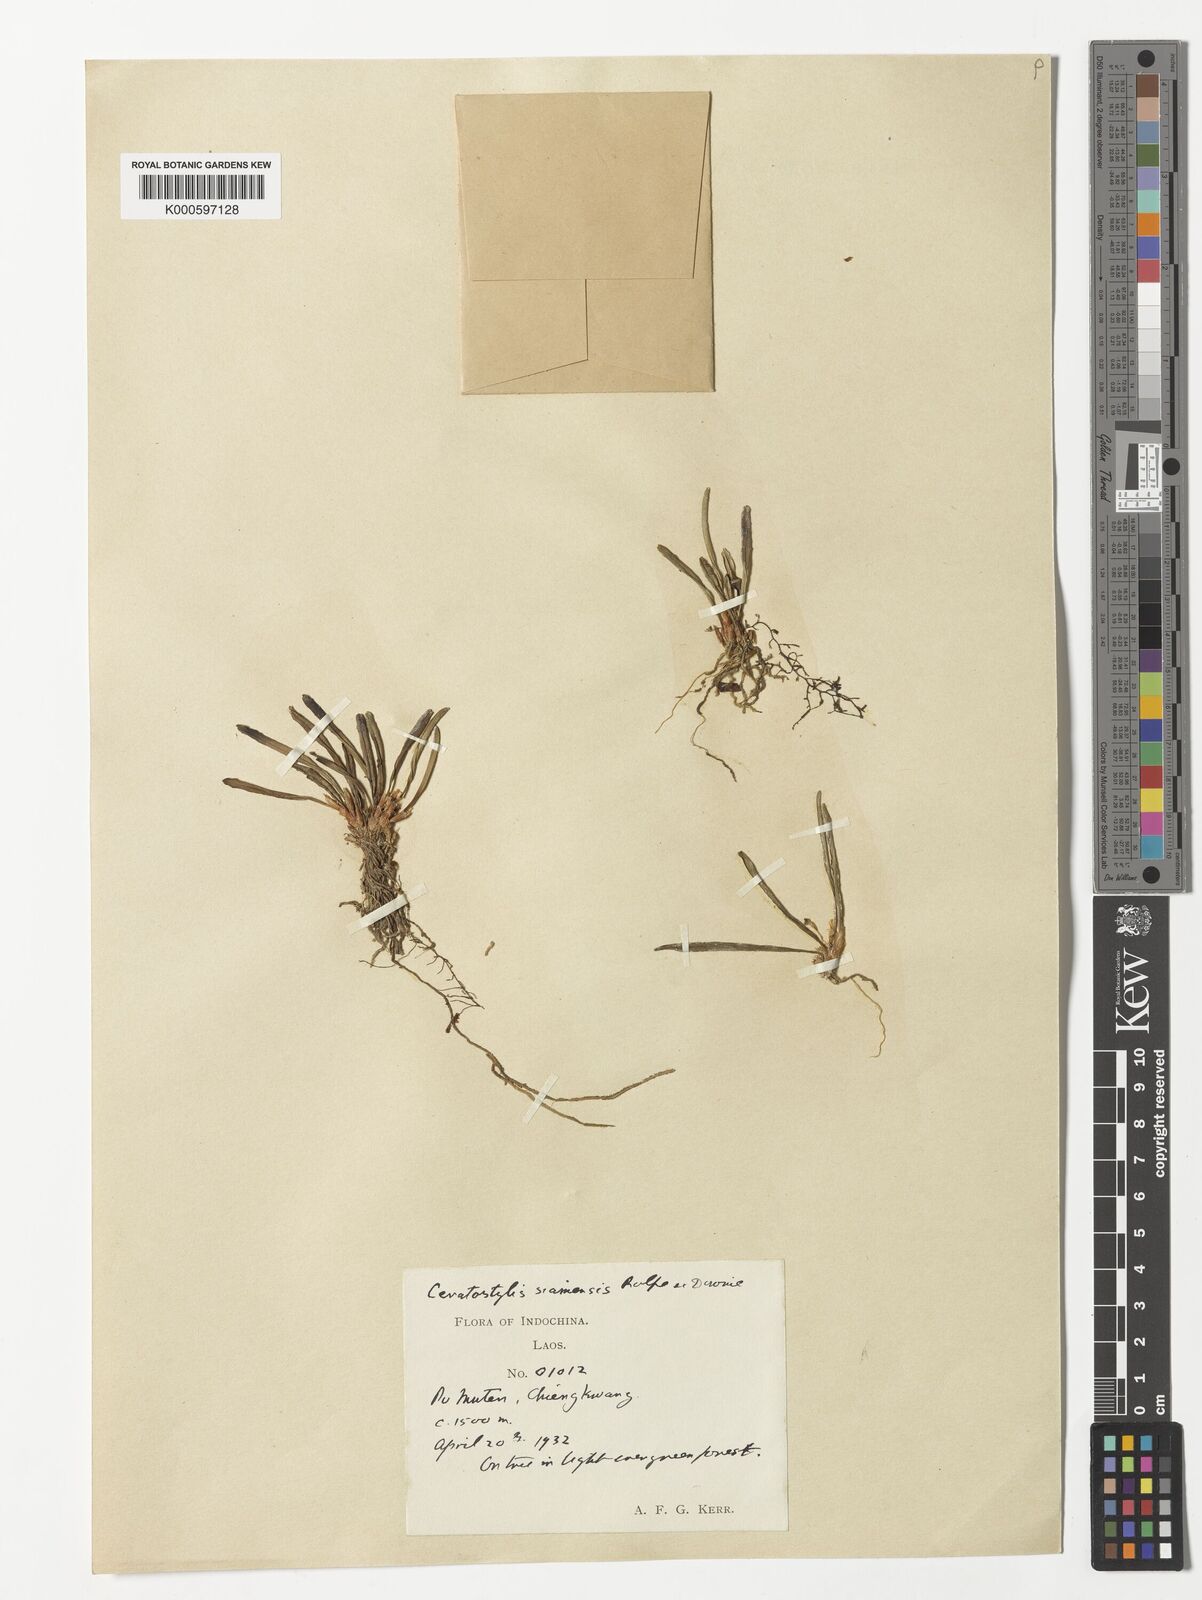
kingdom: Plantae
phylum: Tracheophyta
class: Liliopsida
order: Asparagales
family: Orchidaceae
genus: Ceratostylis
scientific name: Ceratostylis siamensis
